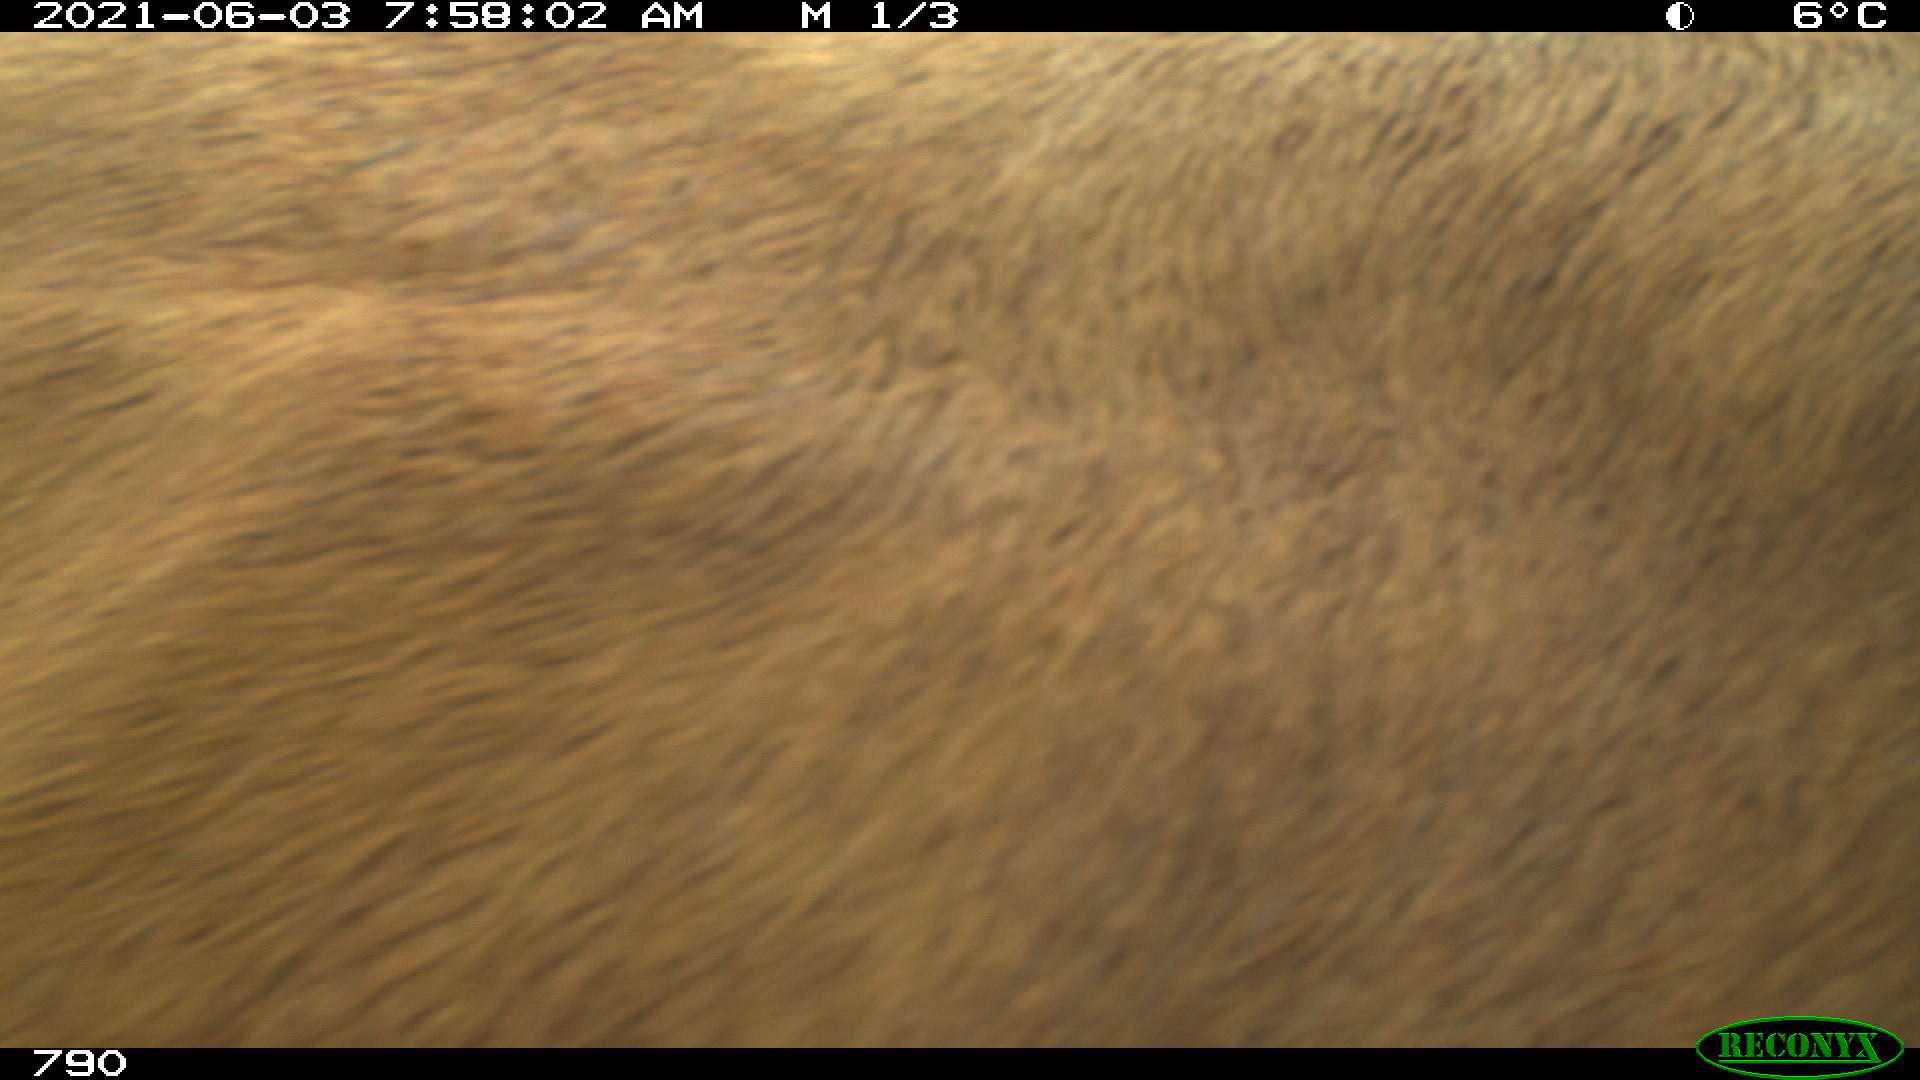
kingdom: Animalia
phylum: Chordata
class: Mammalia
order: Artiodactyla
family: Bovidae
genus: Bos
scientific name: Bos taurus
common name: Domesticated cattle
